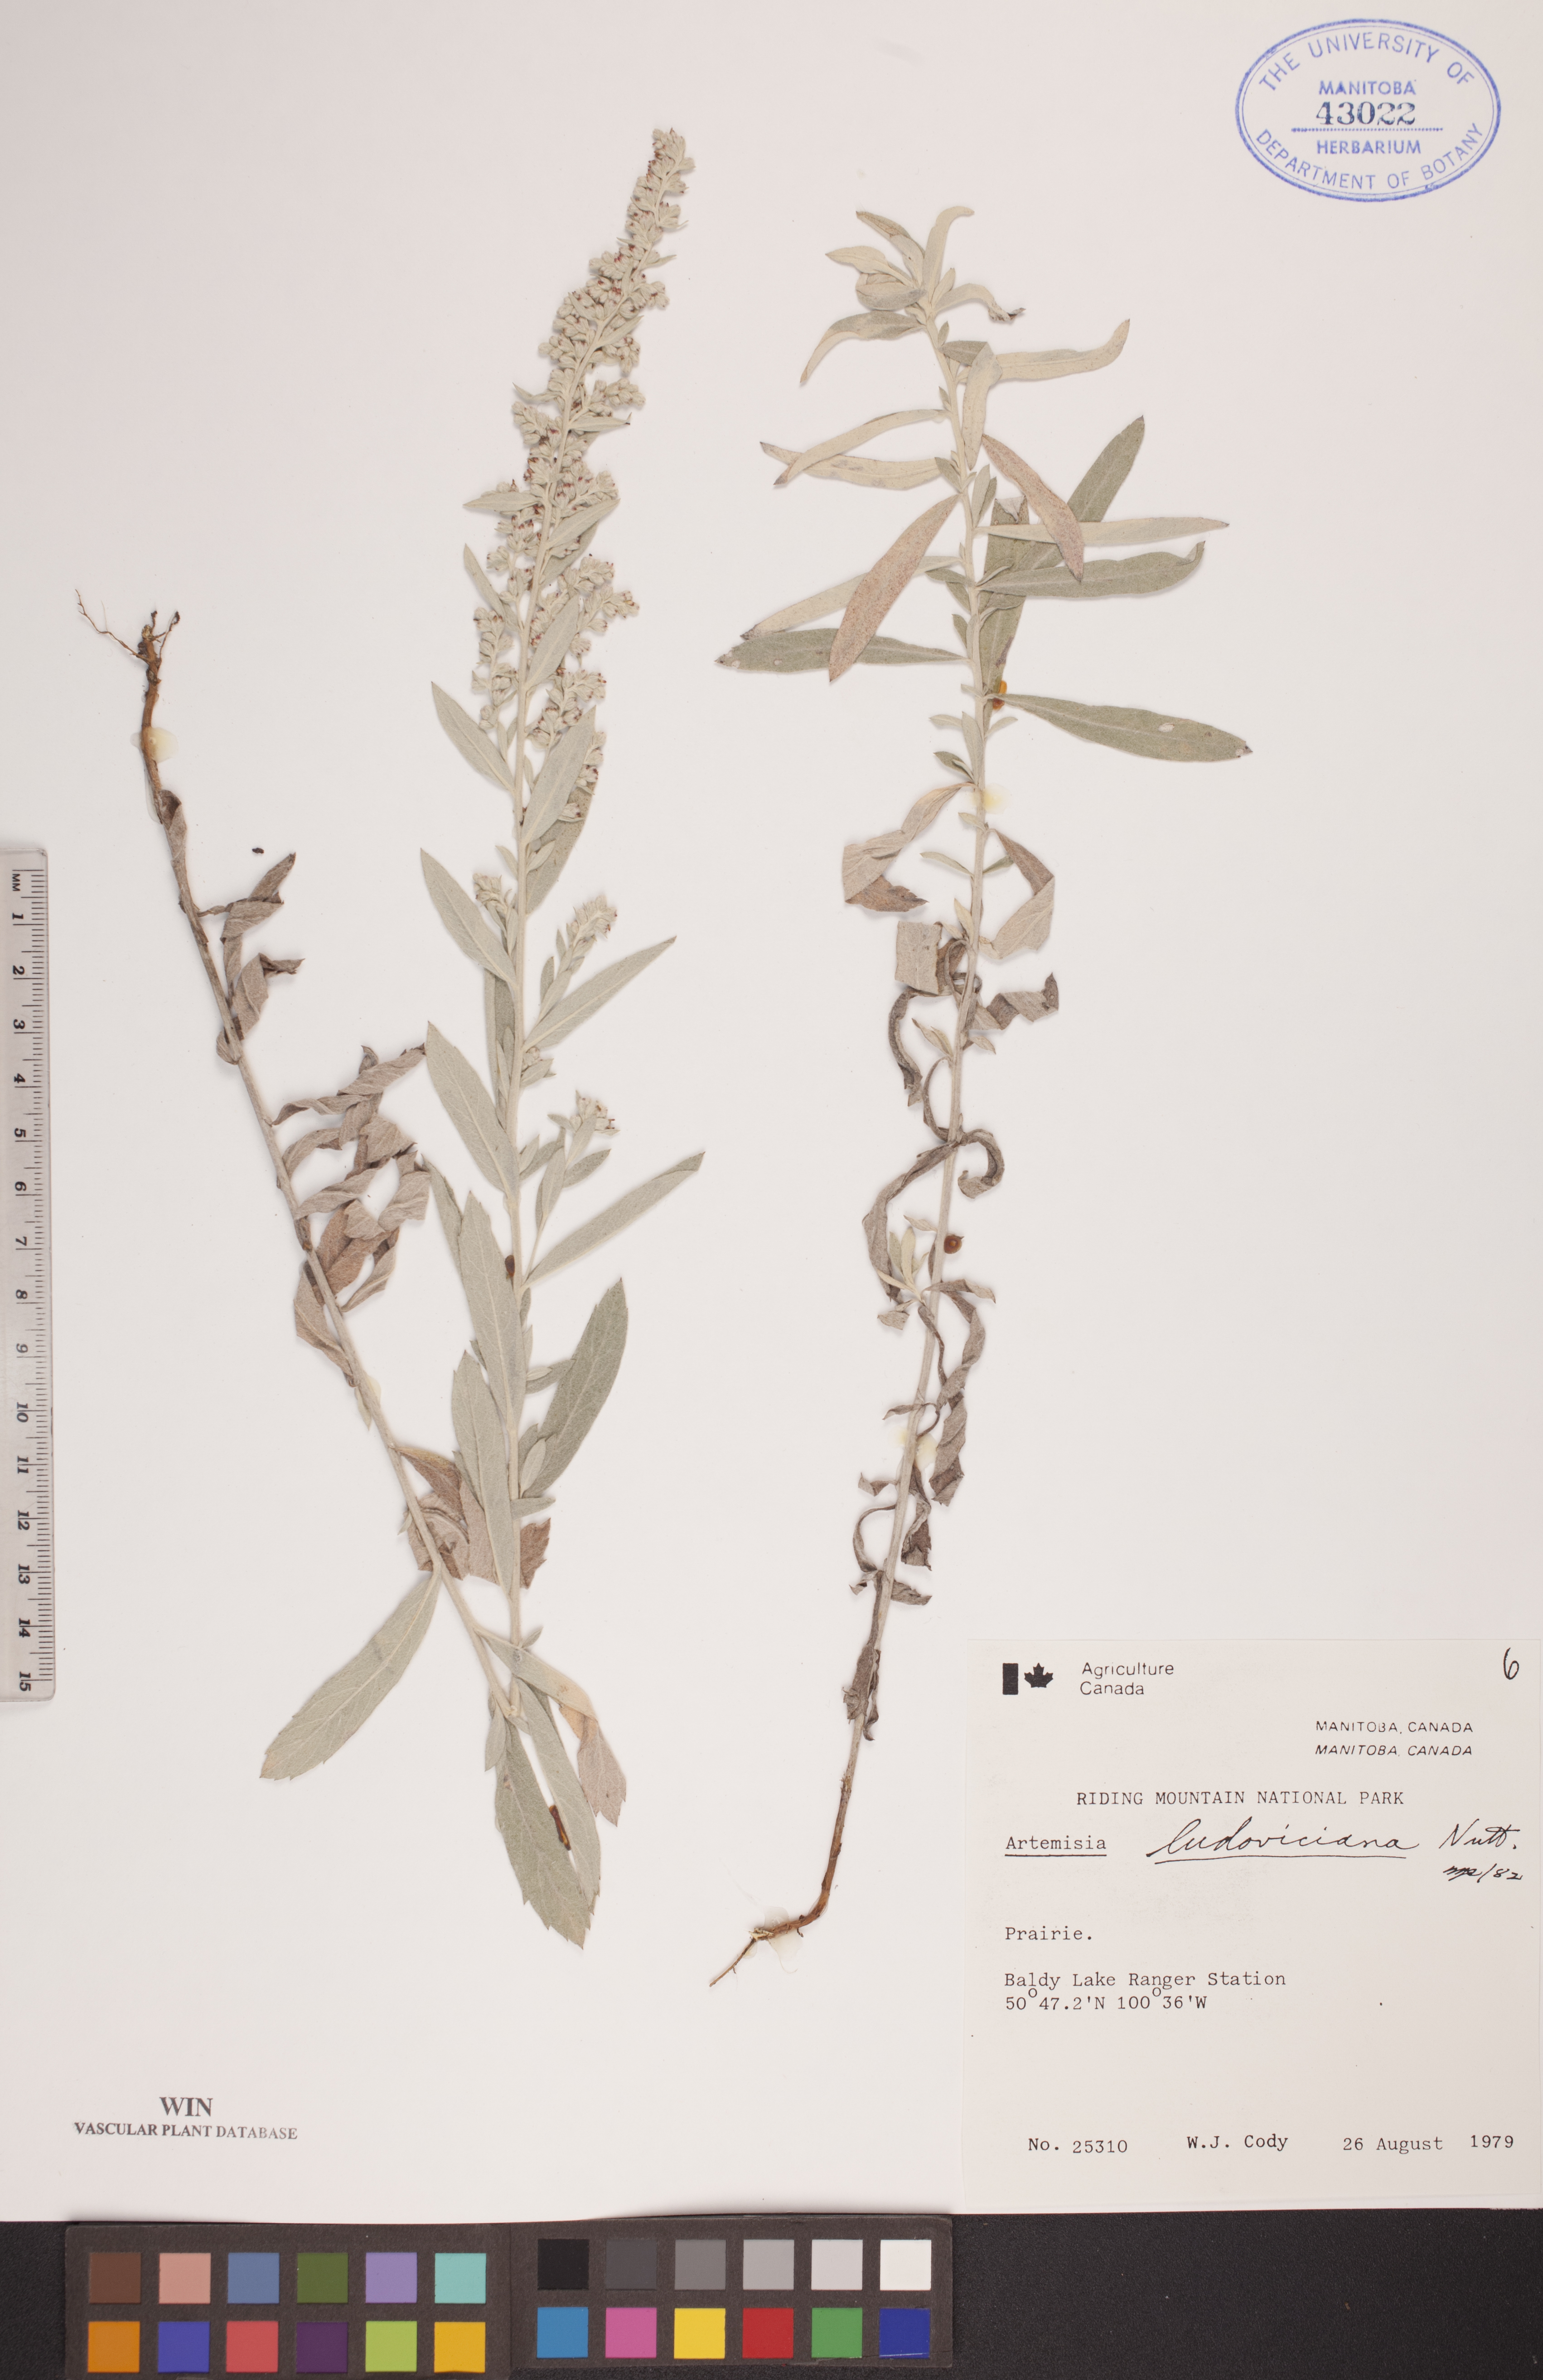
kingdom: Plantae
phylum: Tracheophyta
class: Magnoliopsida
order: Asterales
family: Asteraceae
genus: Artemisia
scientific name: Artemisia ludoviciana
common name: Western mugwort
